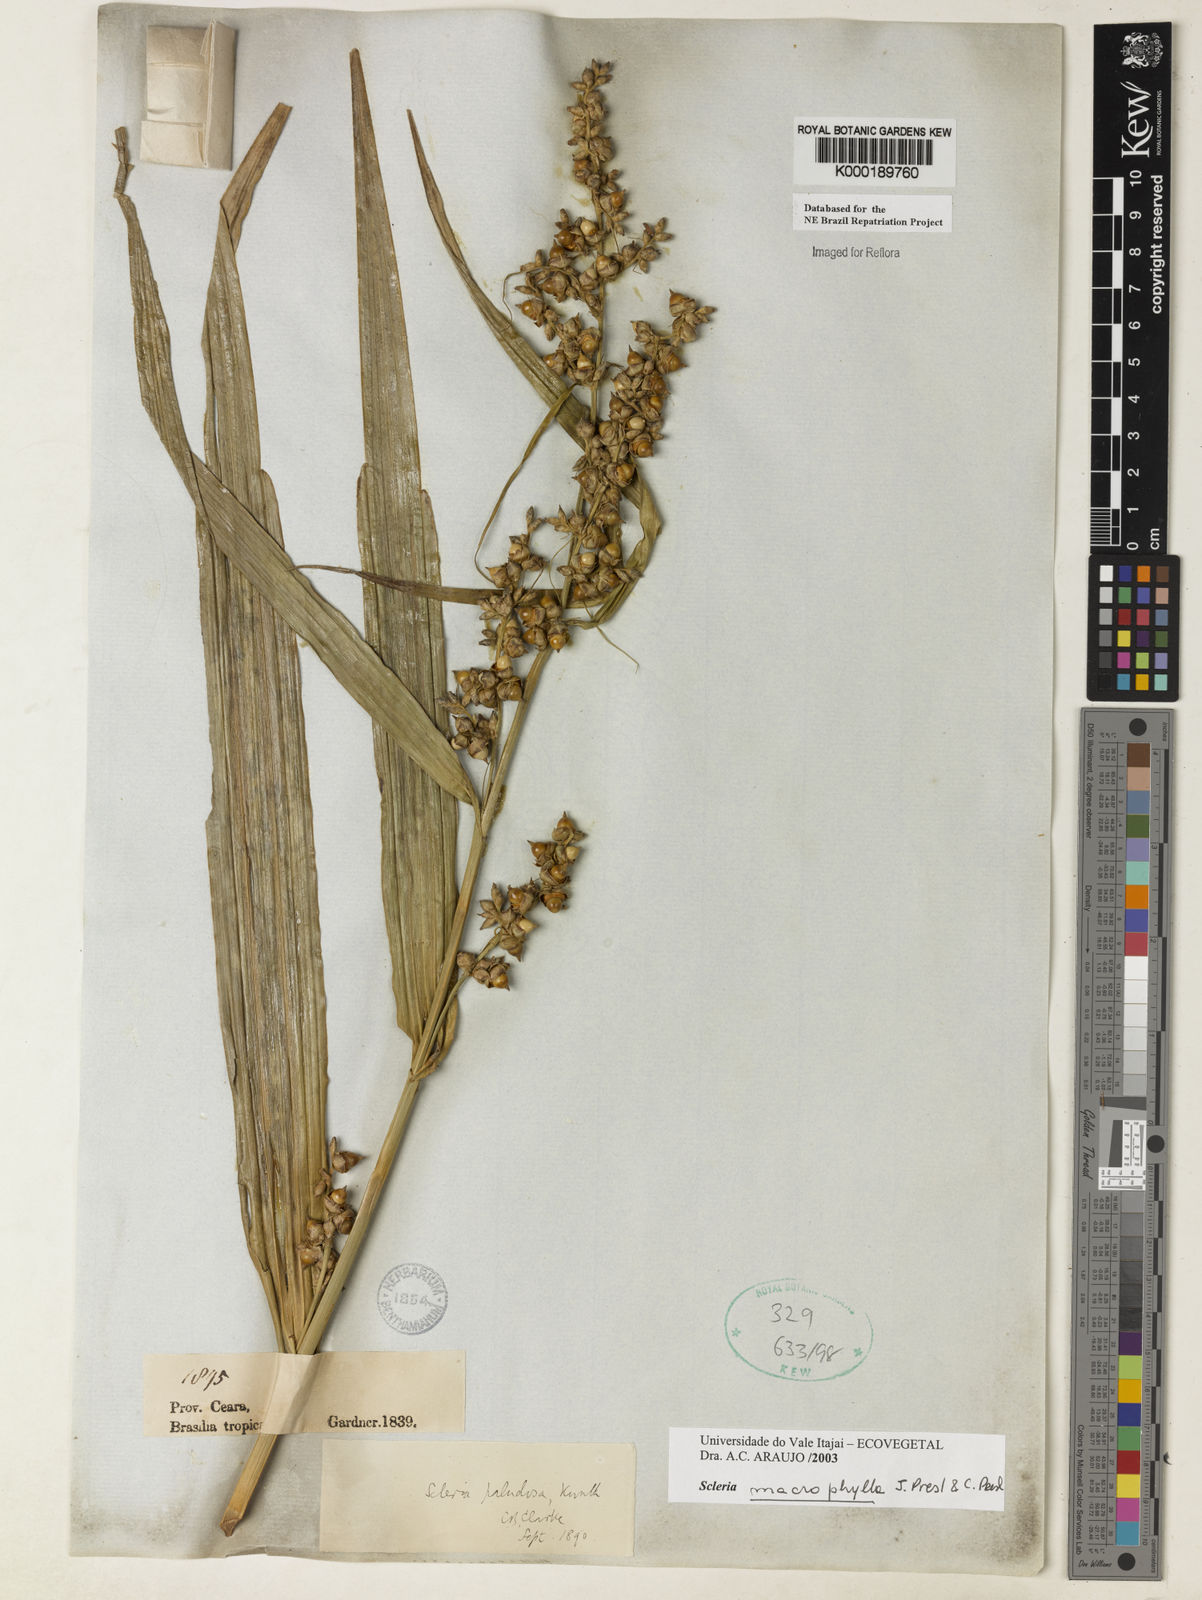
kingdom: Plantae
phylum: Tracheophyta
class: Liliopsida
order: Poales
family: Cyperaceae
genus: Scleria
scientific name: Scleria
